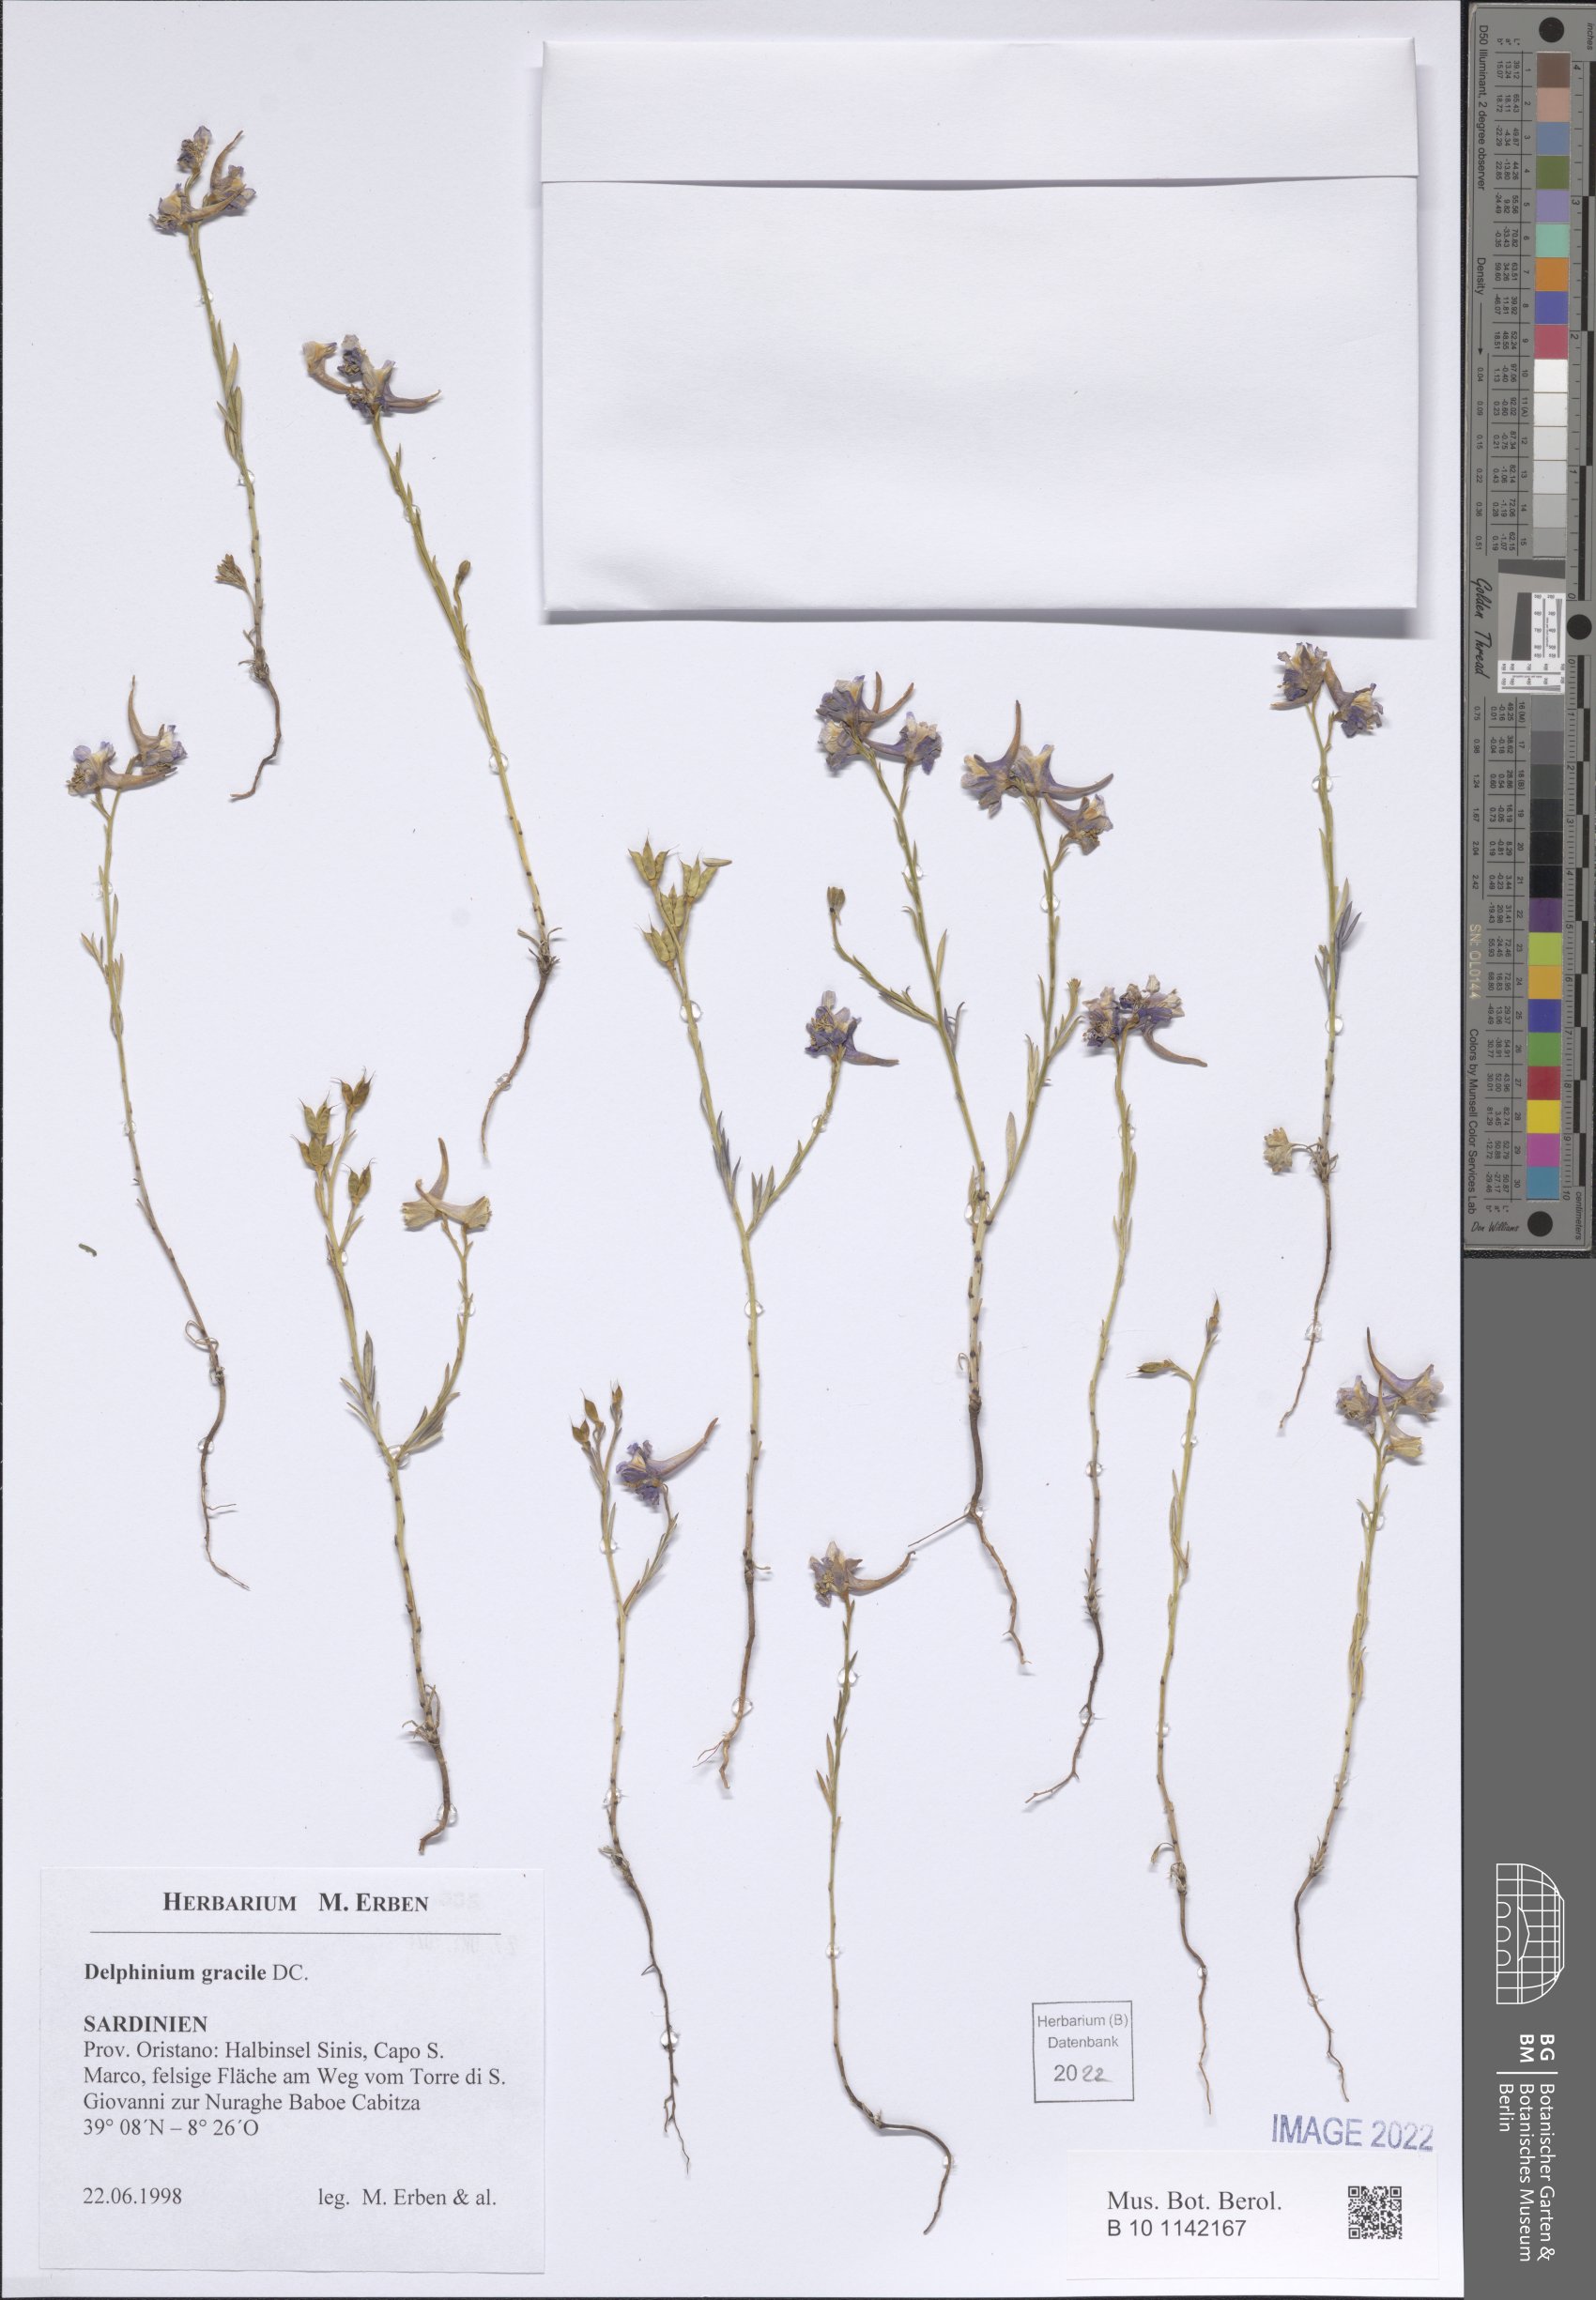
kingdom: Plantae
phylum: Tracheophyta
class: Magnoliopsida
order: Ranunculales
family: Ranunculaceae
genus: Delphinium
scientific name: Delphinium gracile
